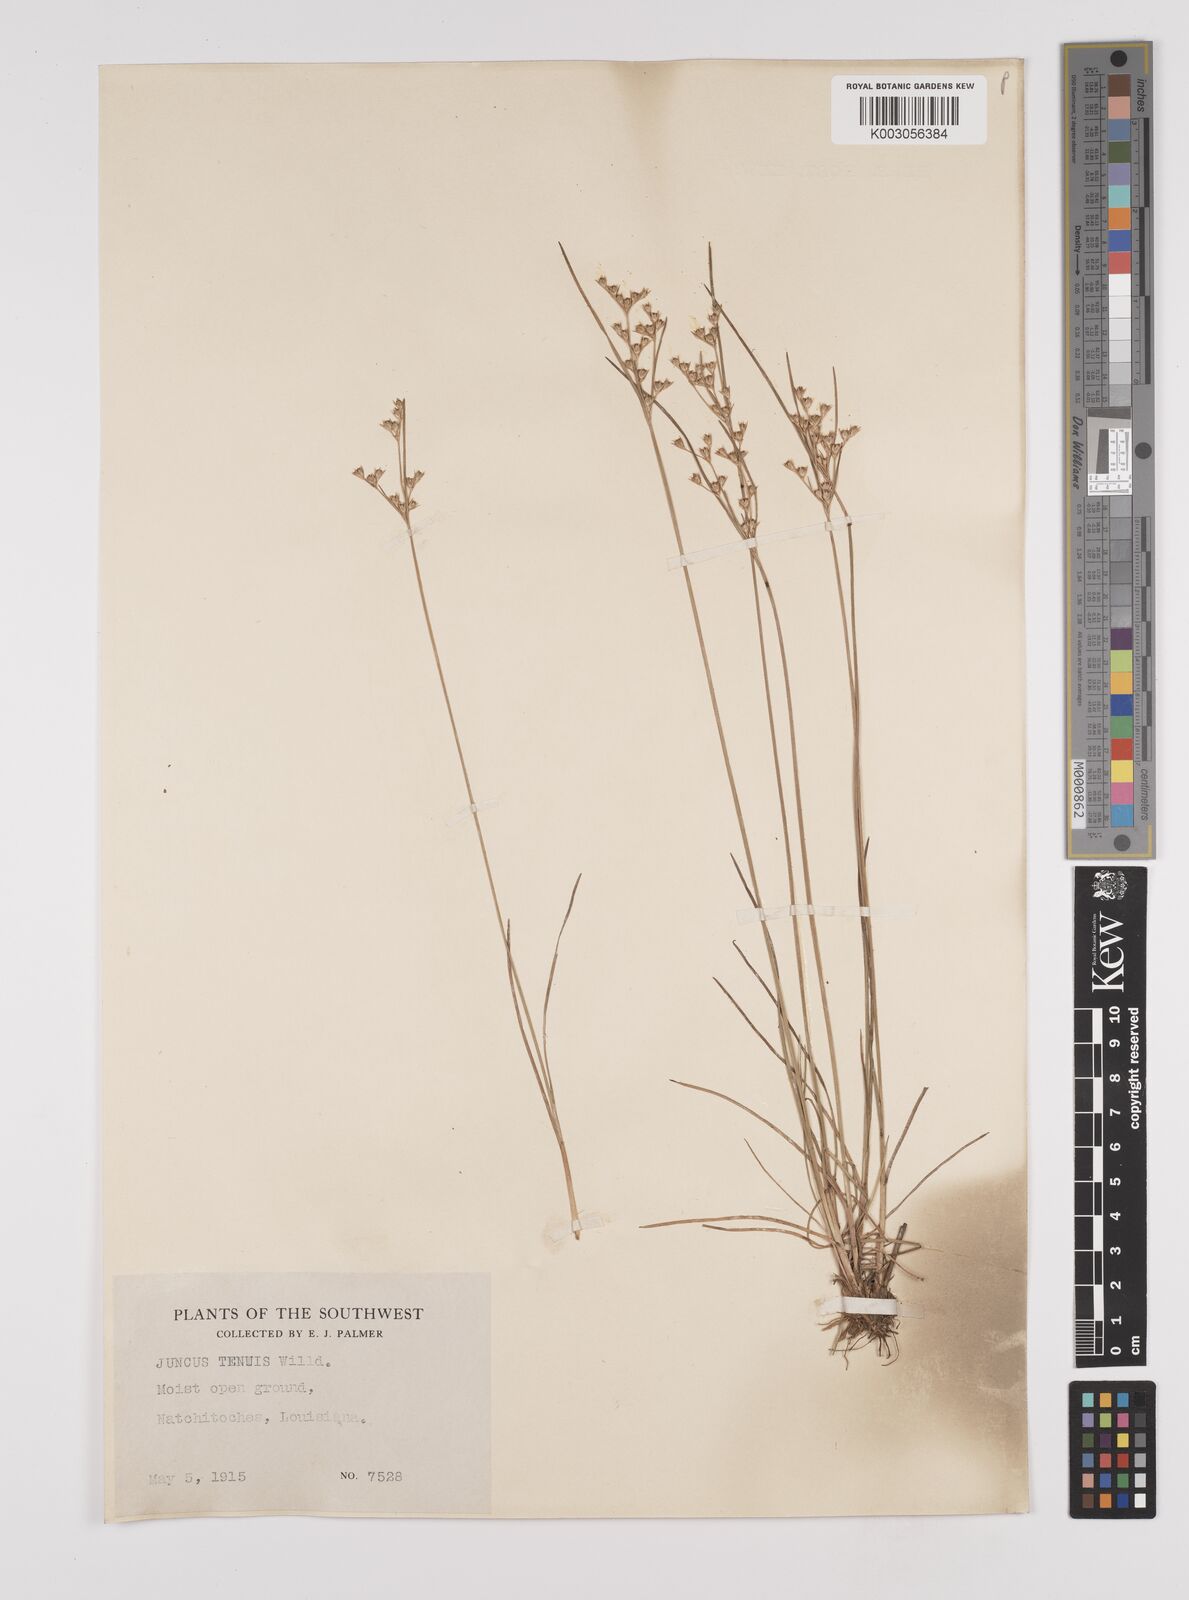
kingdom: Plantae
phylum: Tracheophyta
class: Liliopsida
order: Poales
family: Juncaceae
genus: Juncus
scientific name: Juncus tenuis
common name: Slender rush
